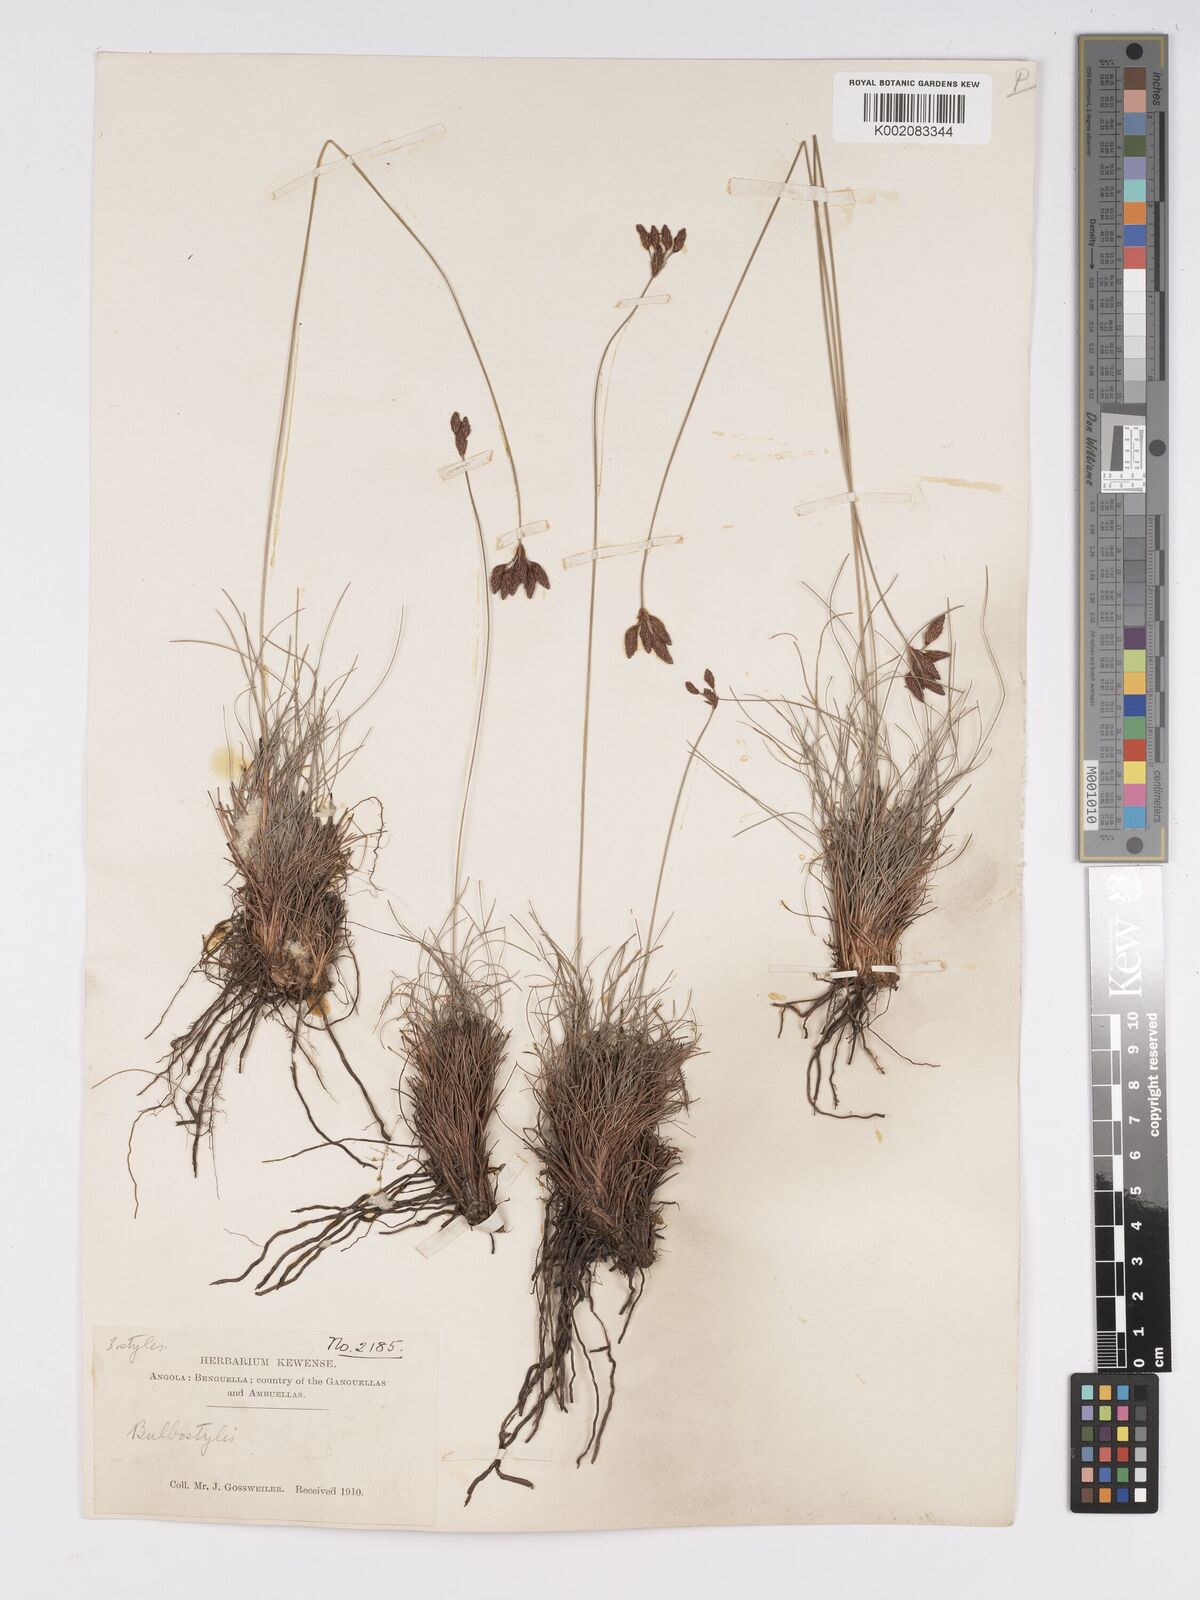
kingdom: Plantae
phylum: Tracheophyta
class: Liliopsida
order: Poales
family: Cyperaceae
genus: Bulbostylis
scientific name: Bulbostylis schoenoides
